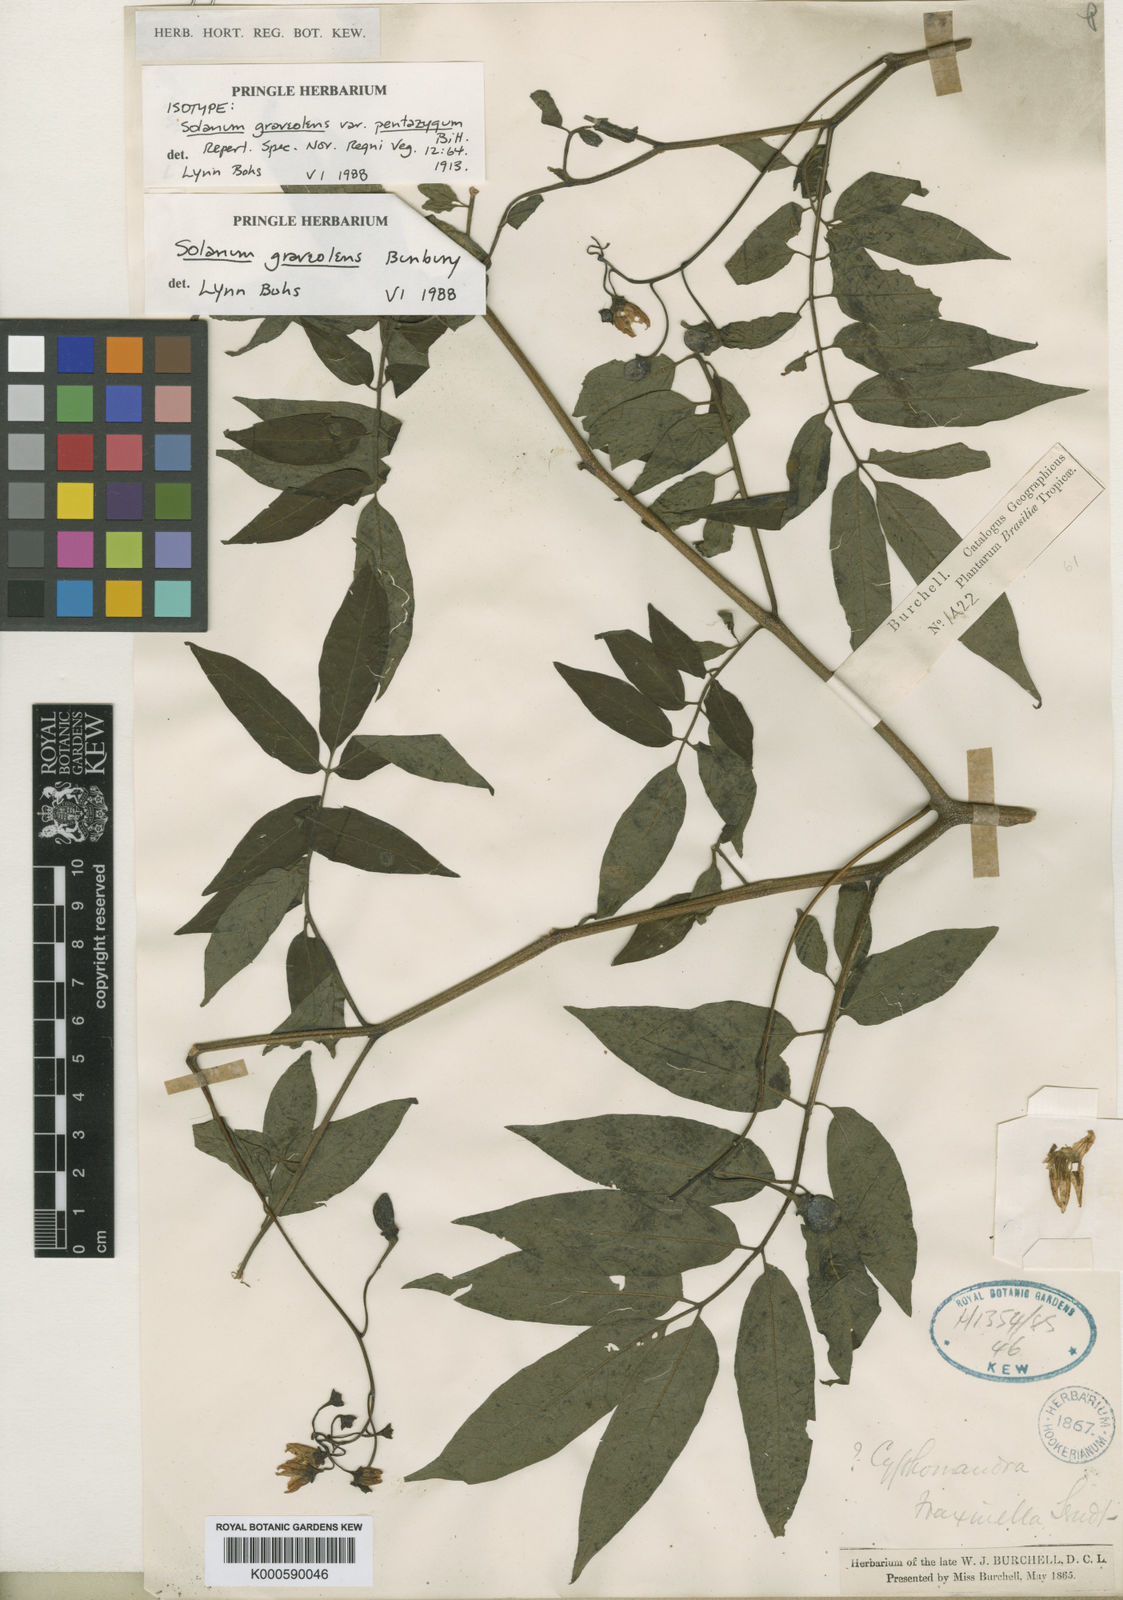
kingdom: Plantae
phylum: Tracheophyta
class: Magnoliopsida
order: Solanales
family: Solanaceae
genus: Solanum
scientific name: Solanum graveolens
